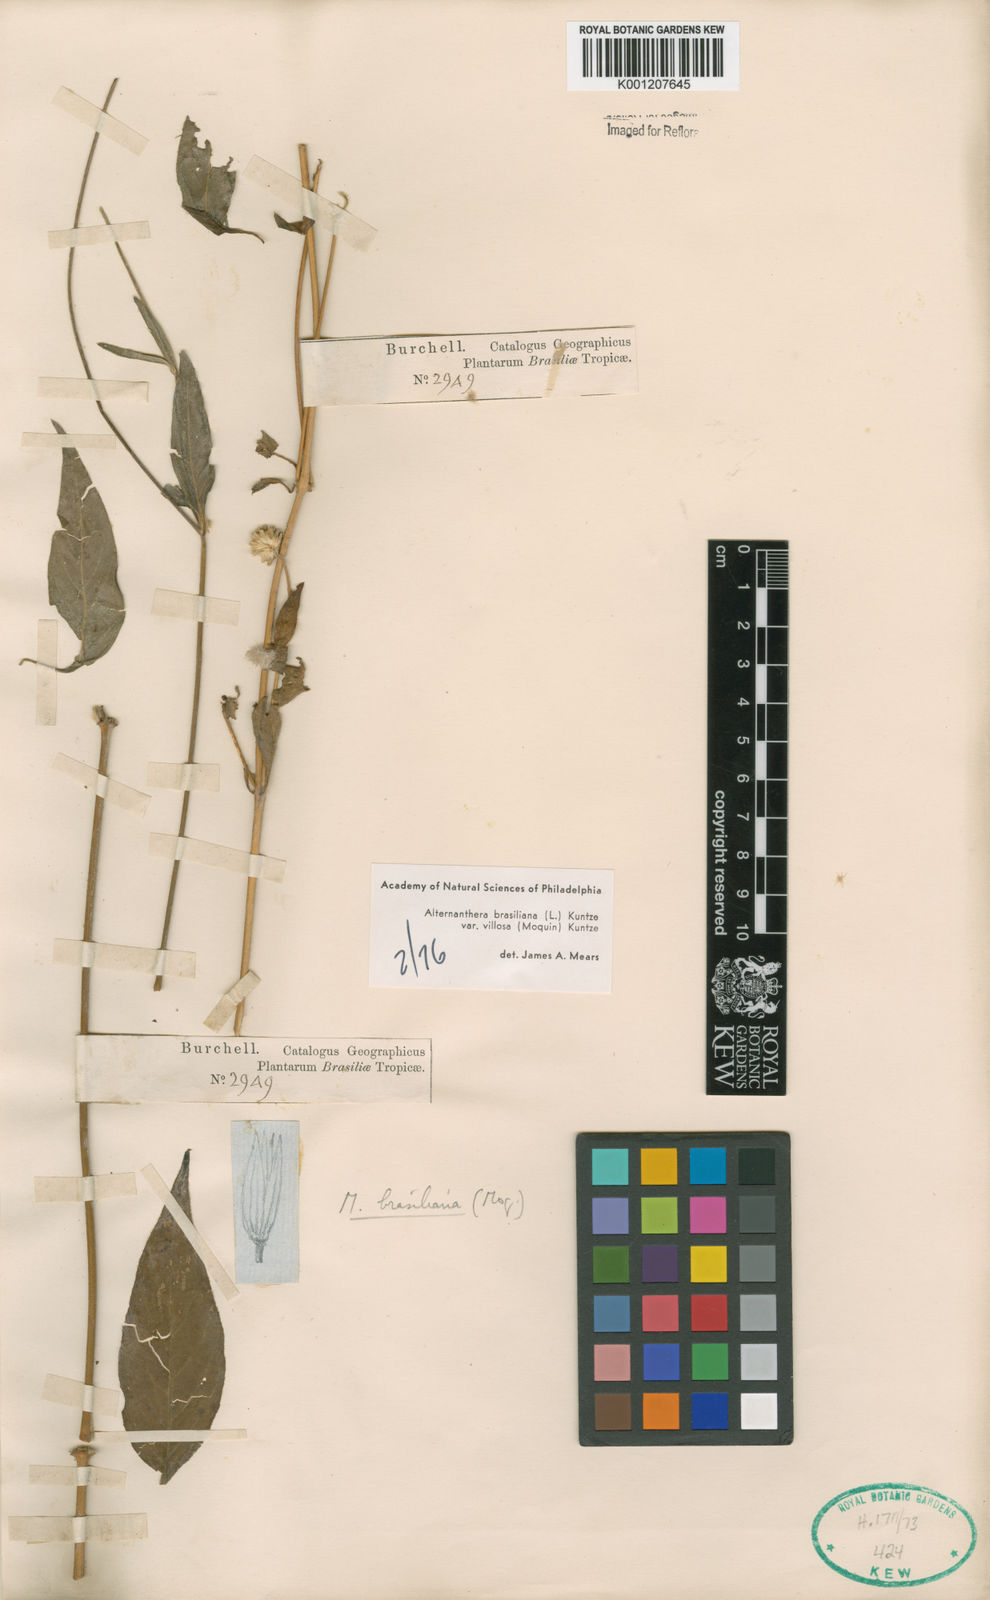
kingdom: Plantae
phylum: Tracheophyta
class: Magnoliopsida
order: Caryophyllales
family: Amaranthaceae
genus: Alternanthera
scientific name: Alternanthera ramosissima
